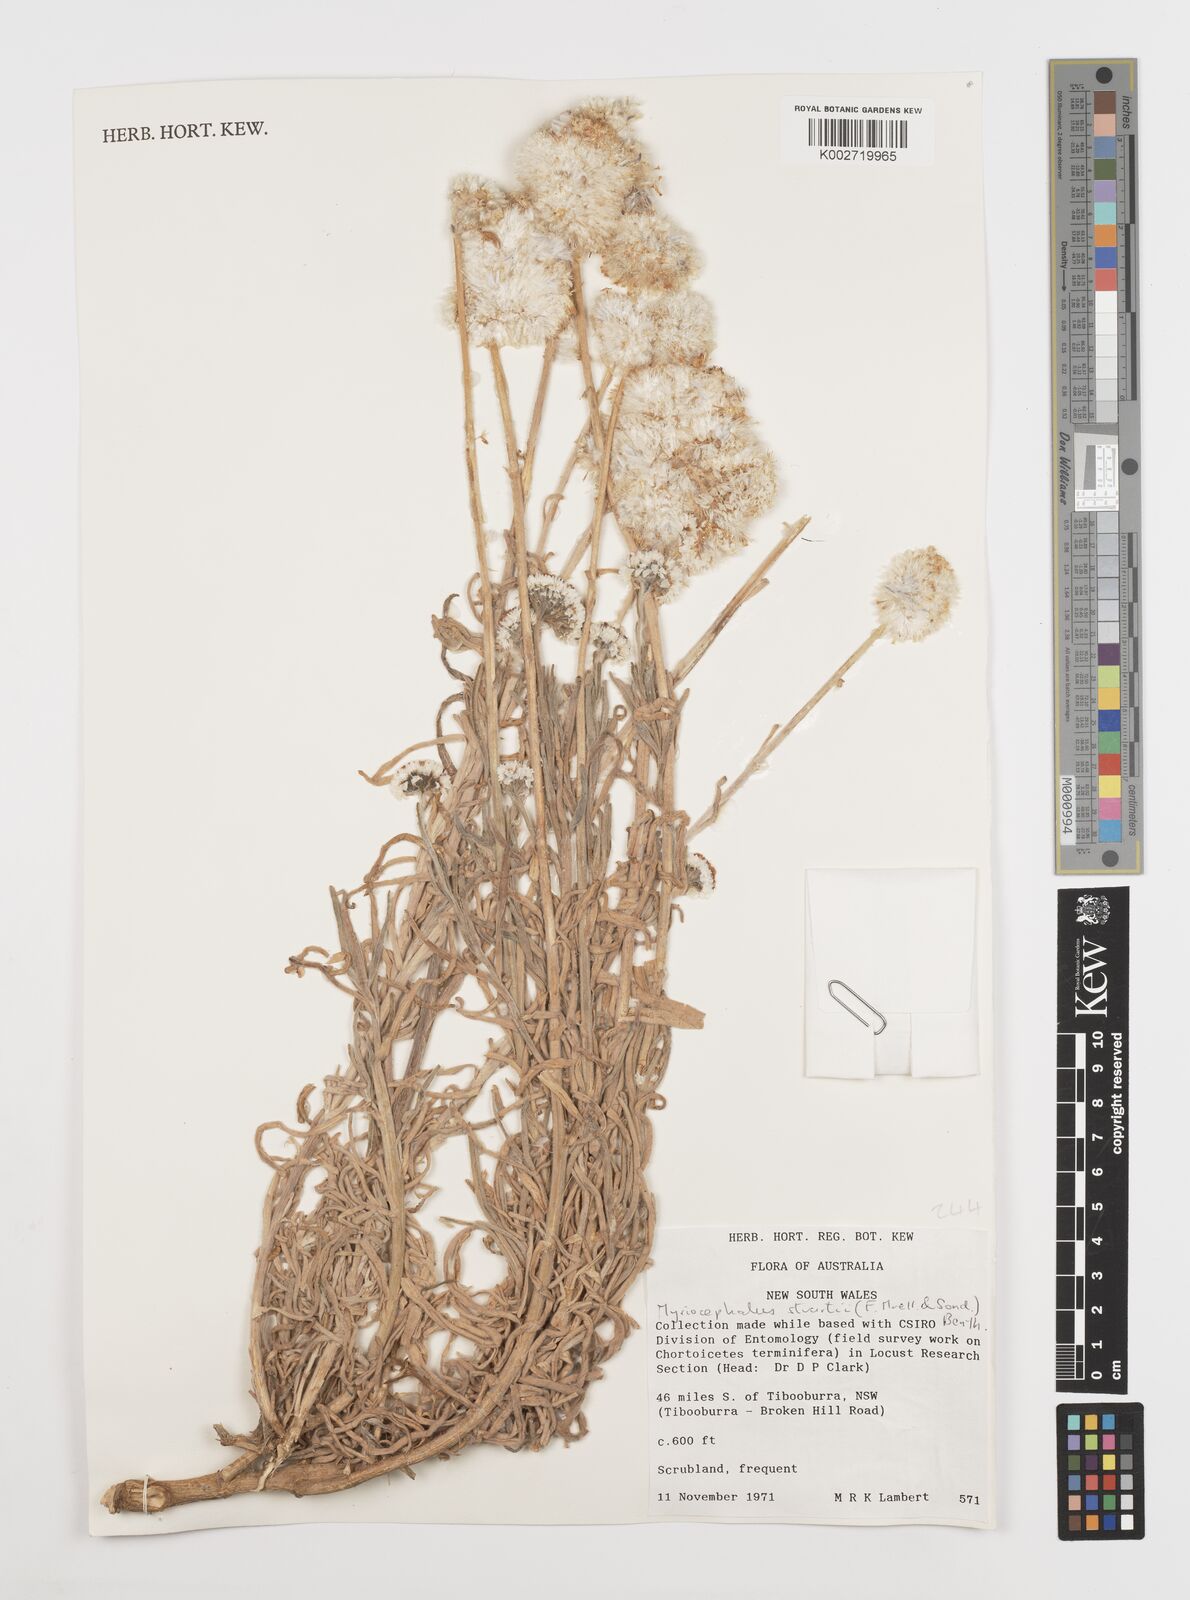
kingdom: Plantae
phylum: Tracheophyta
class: Magnoliopsida
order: Asterales
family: Asteraceae
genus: Polycalymma
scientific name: Polycalymma stuartii
